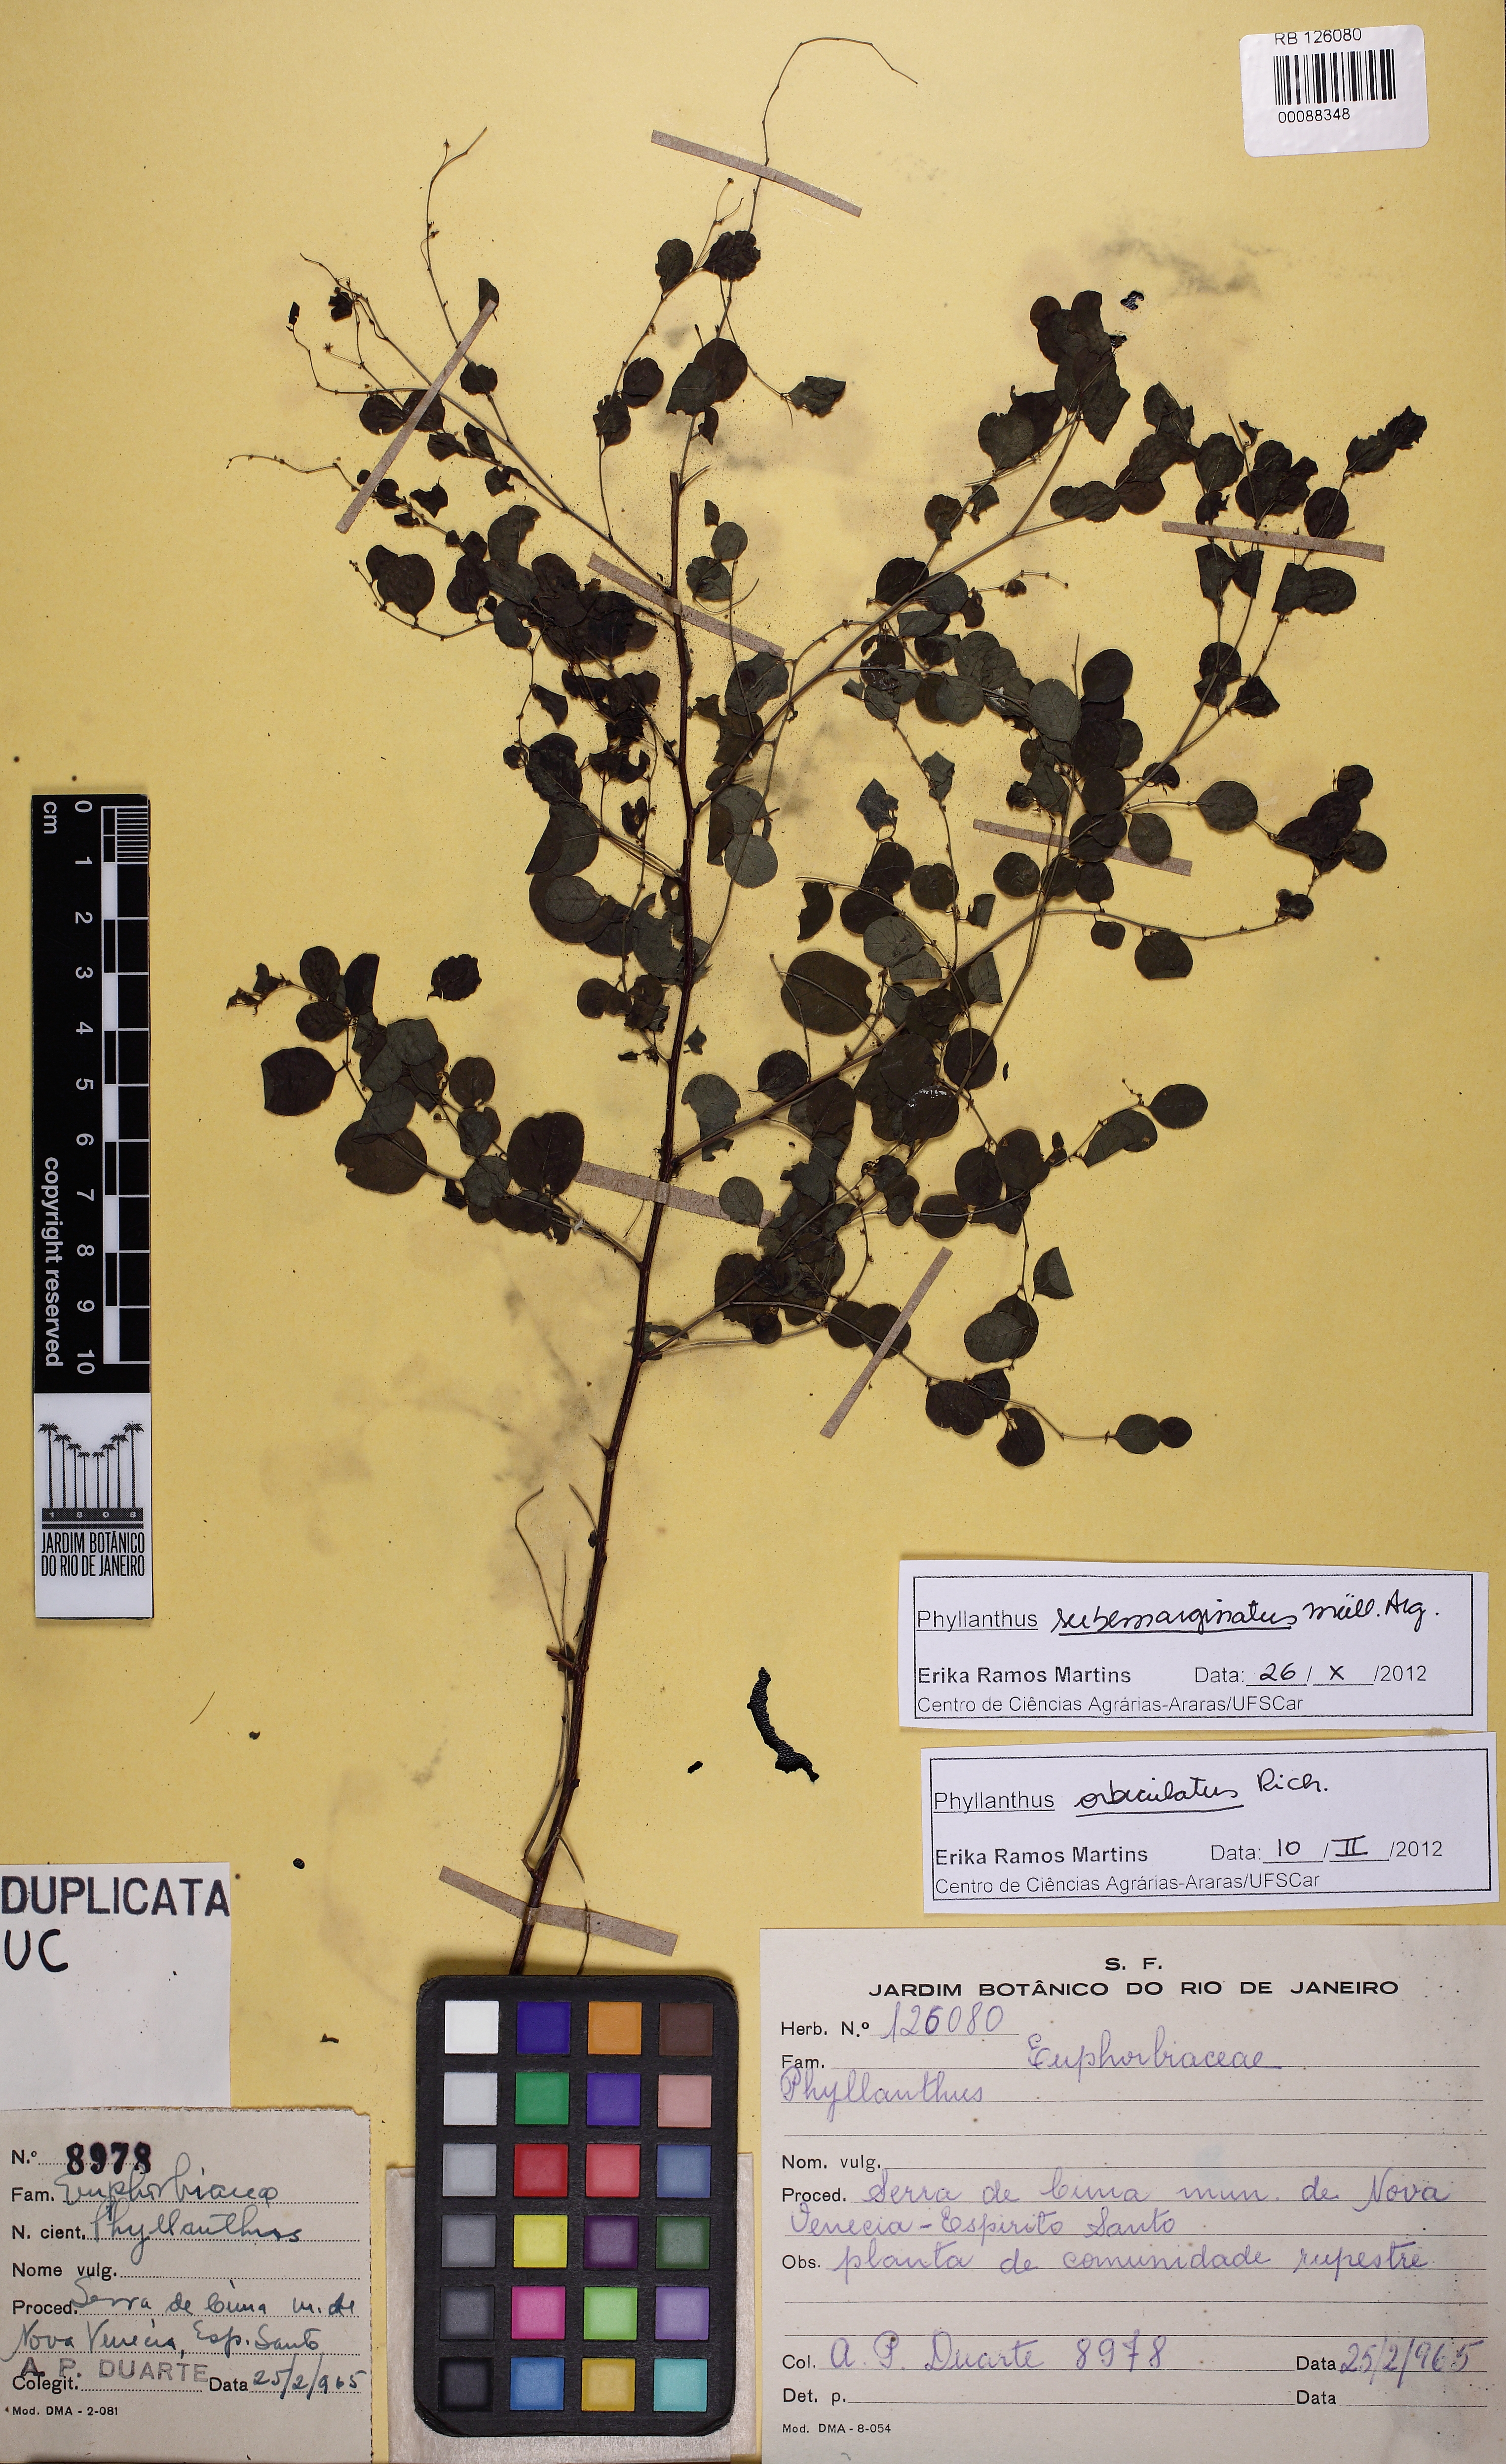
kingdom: Plantae
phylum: Tracheophyta
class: Magnoliopsida
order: Malpighiales
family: Phyllanthaceae
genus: Phyllanthus
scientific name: Phyllanthus claussenii
